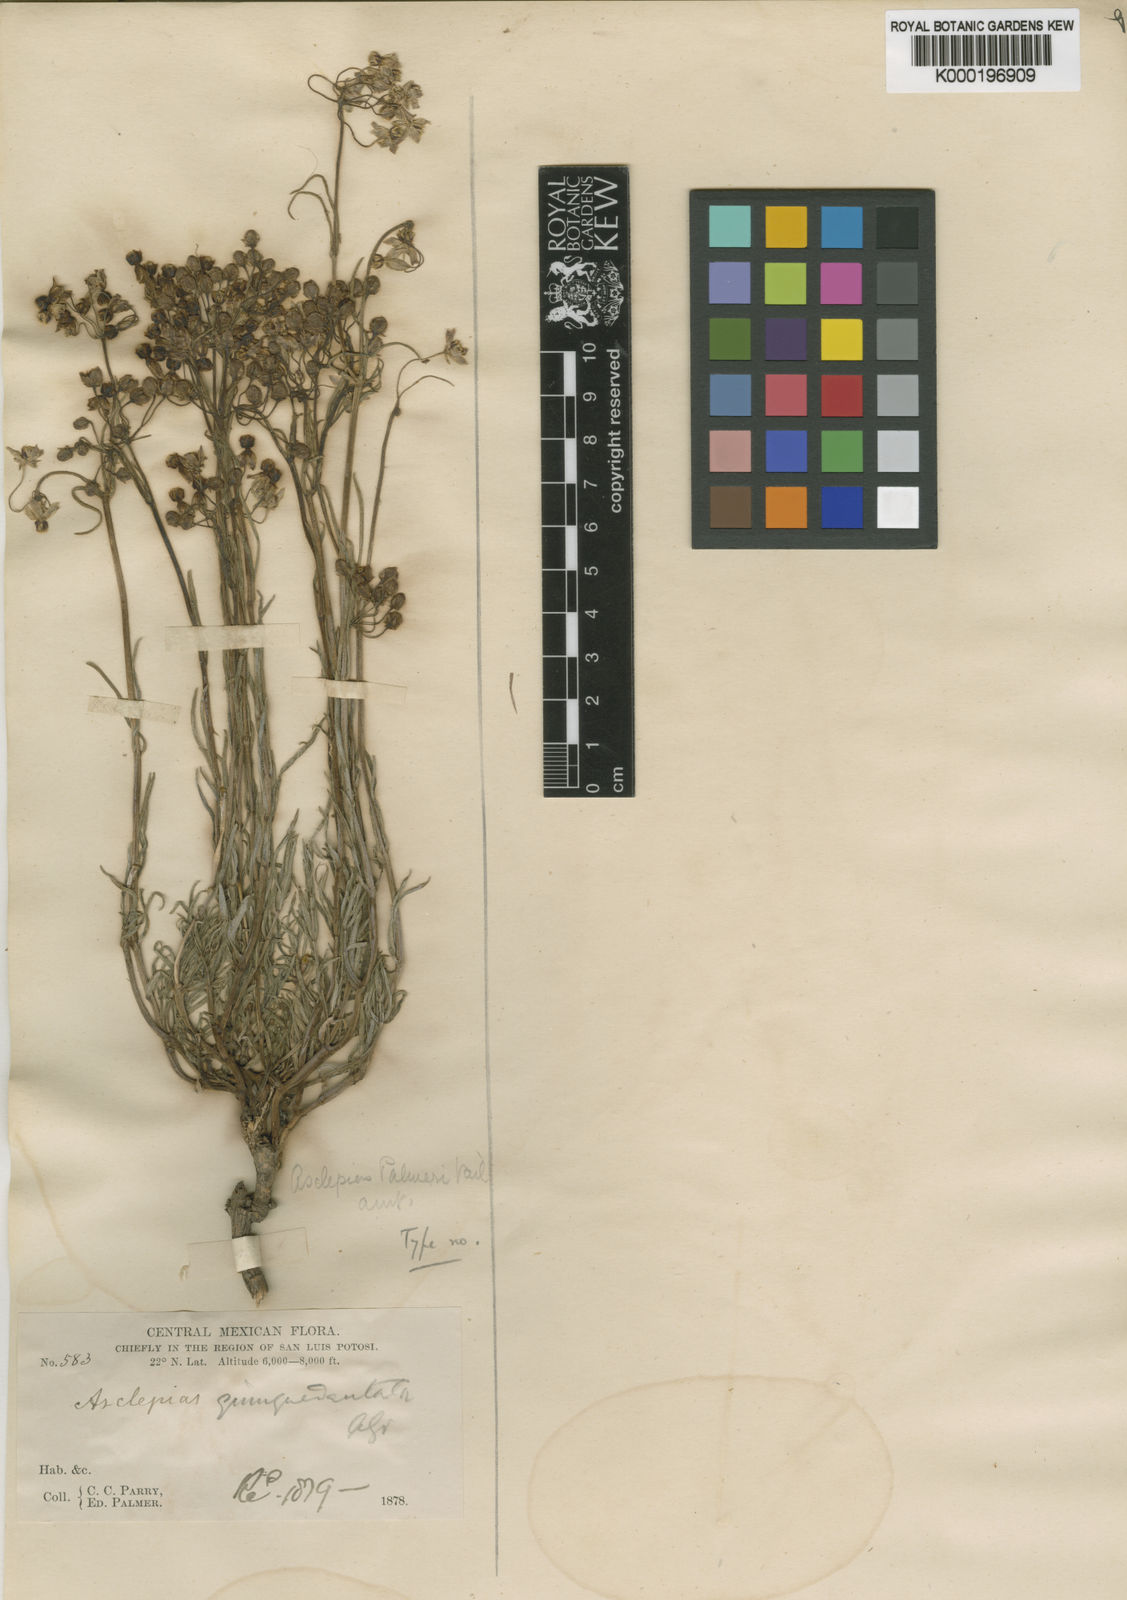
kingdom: Plantae
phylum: Tracheophyta
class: Magnoliopsida
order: Gentianales
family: Apocynaceae
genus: Asclepias
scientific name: Asclepias quinquedentata
